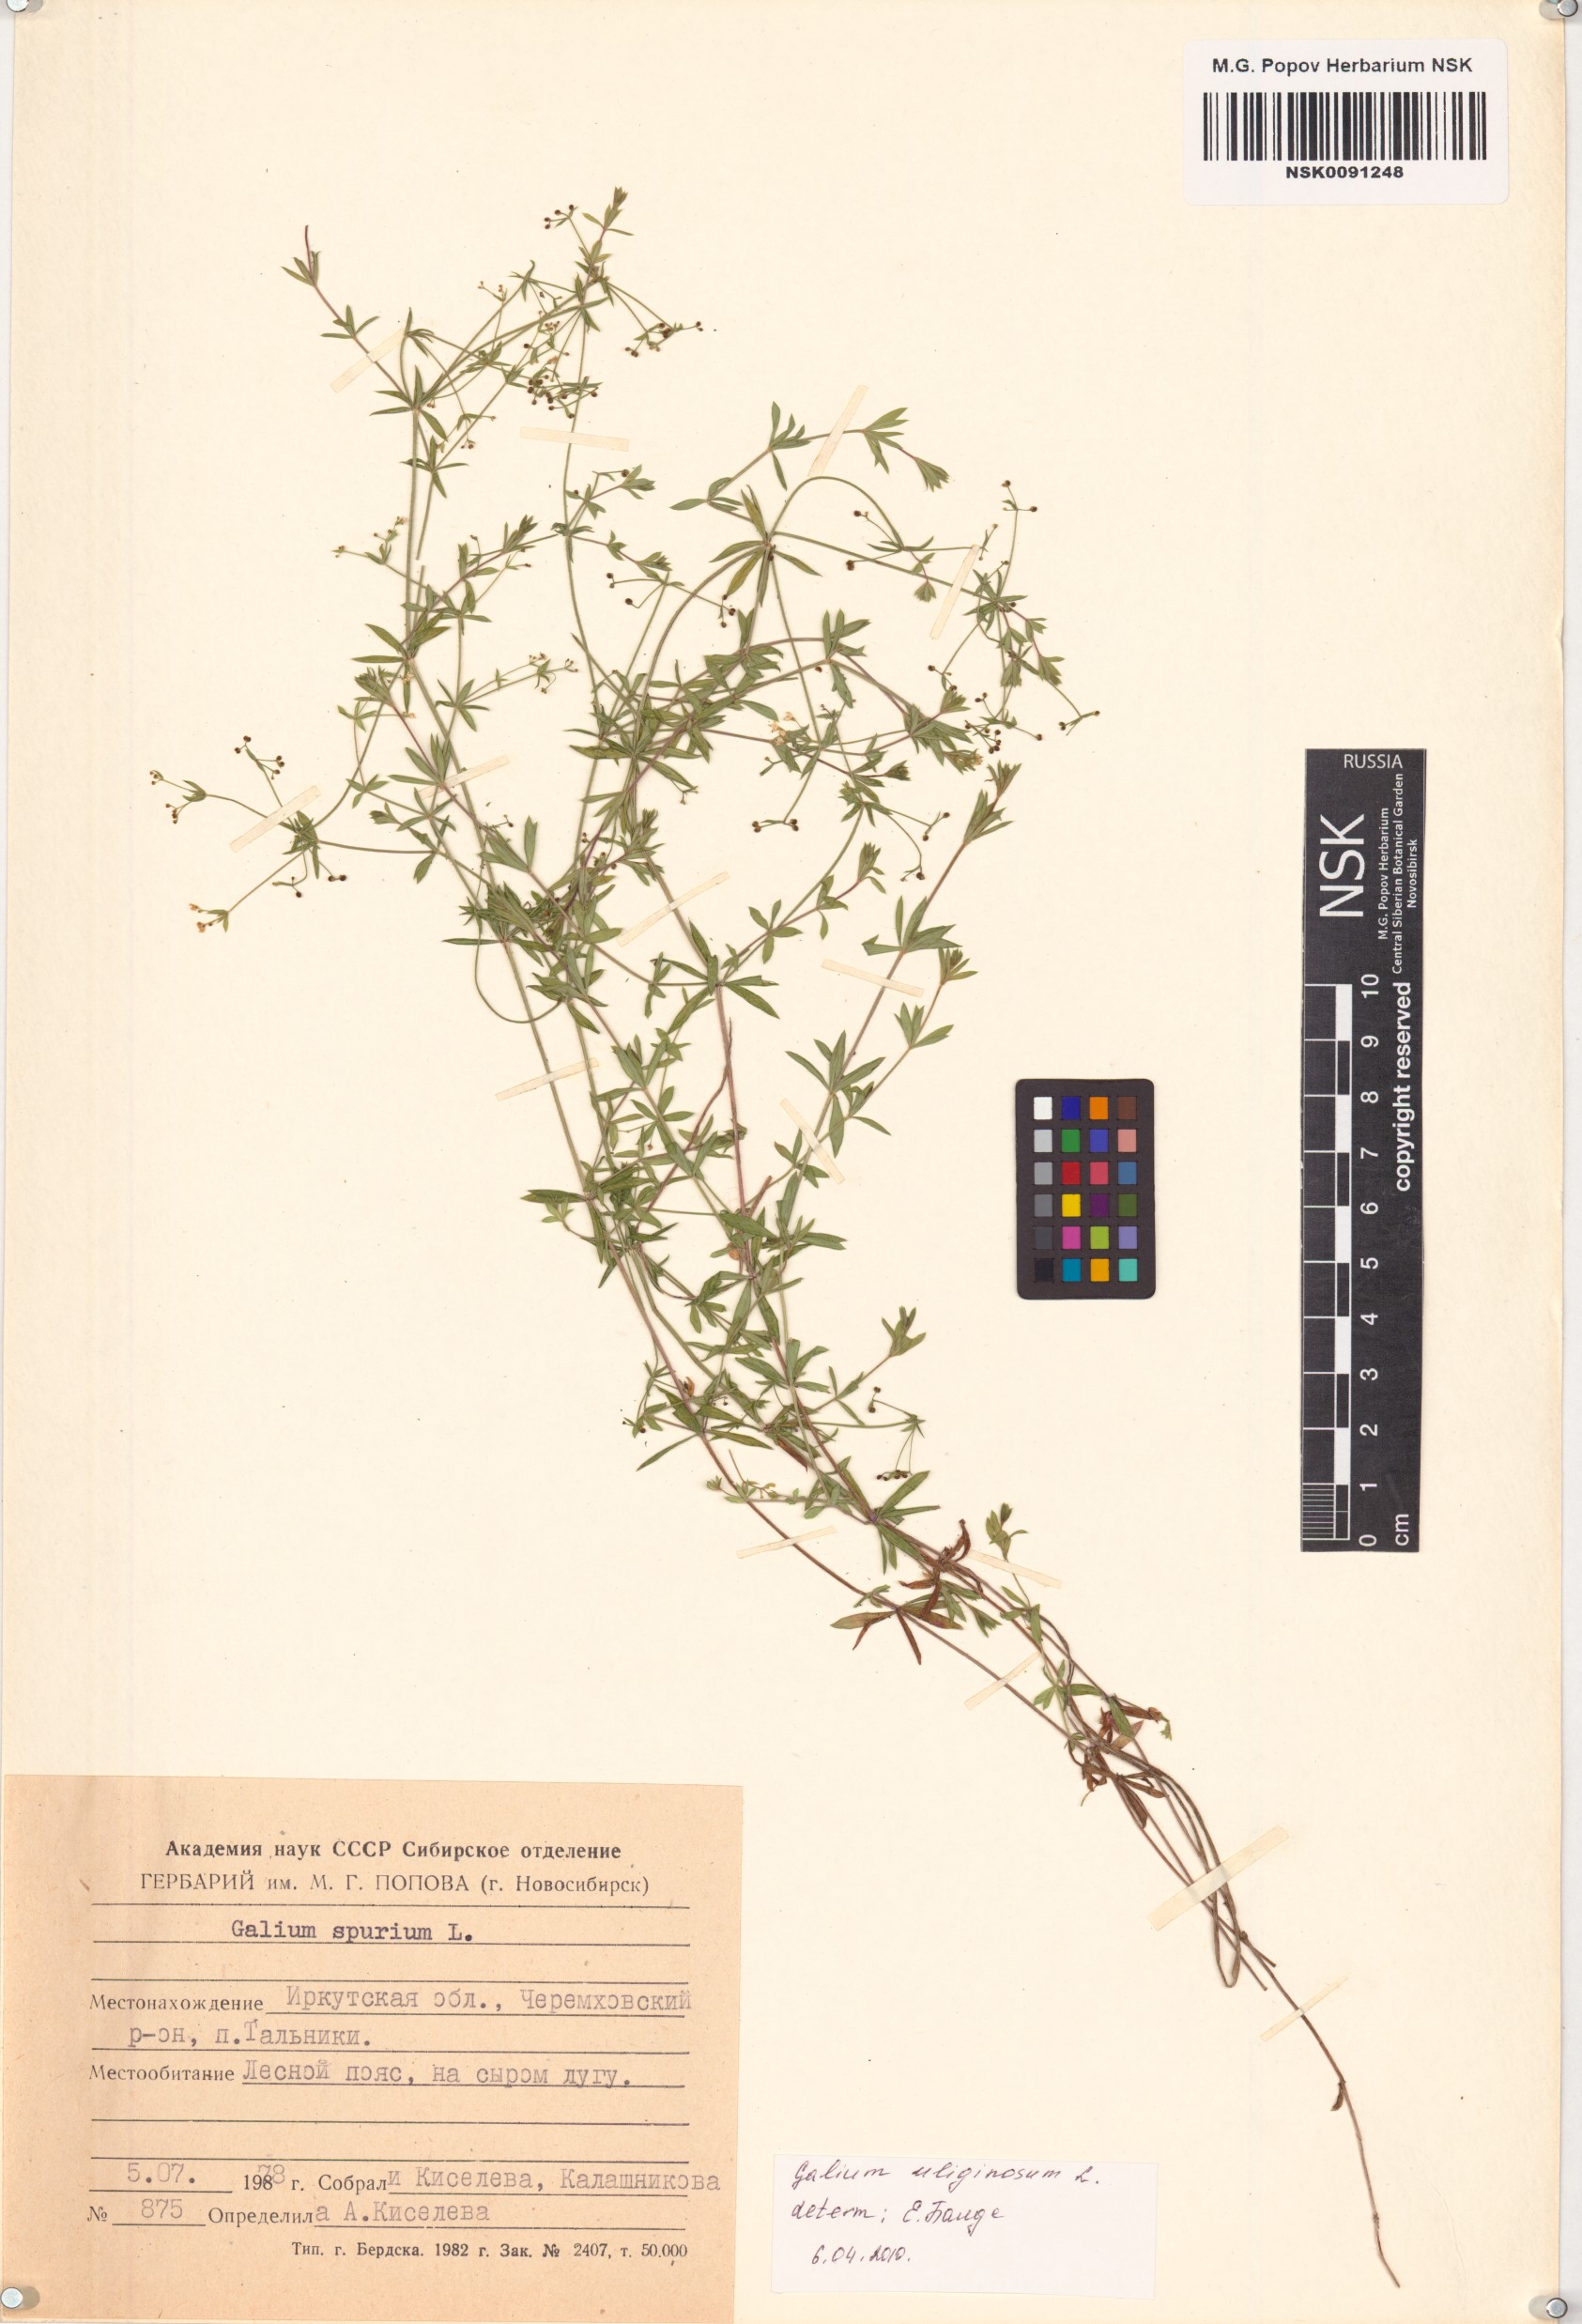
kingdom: Plantae
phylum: Tracheophyta
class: Magnoliopsida
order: Gentianales
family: Rubiaceae
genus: Galium
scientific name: Galium spurium
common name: False cleavers
